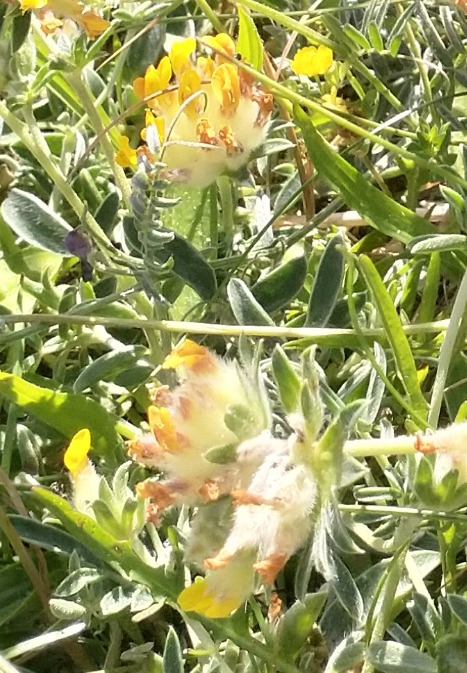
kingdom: Plantae
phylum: Tracheophyta
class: Magnoliopsida
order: Fabales
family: Fabaceae
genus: Anthyllis
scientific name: Anthyllis vulneraria
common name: Rundbælg
